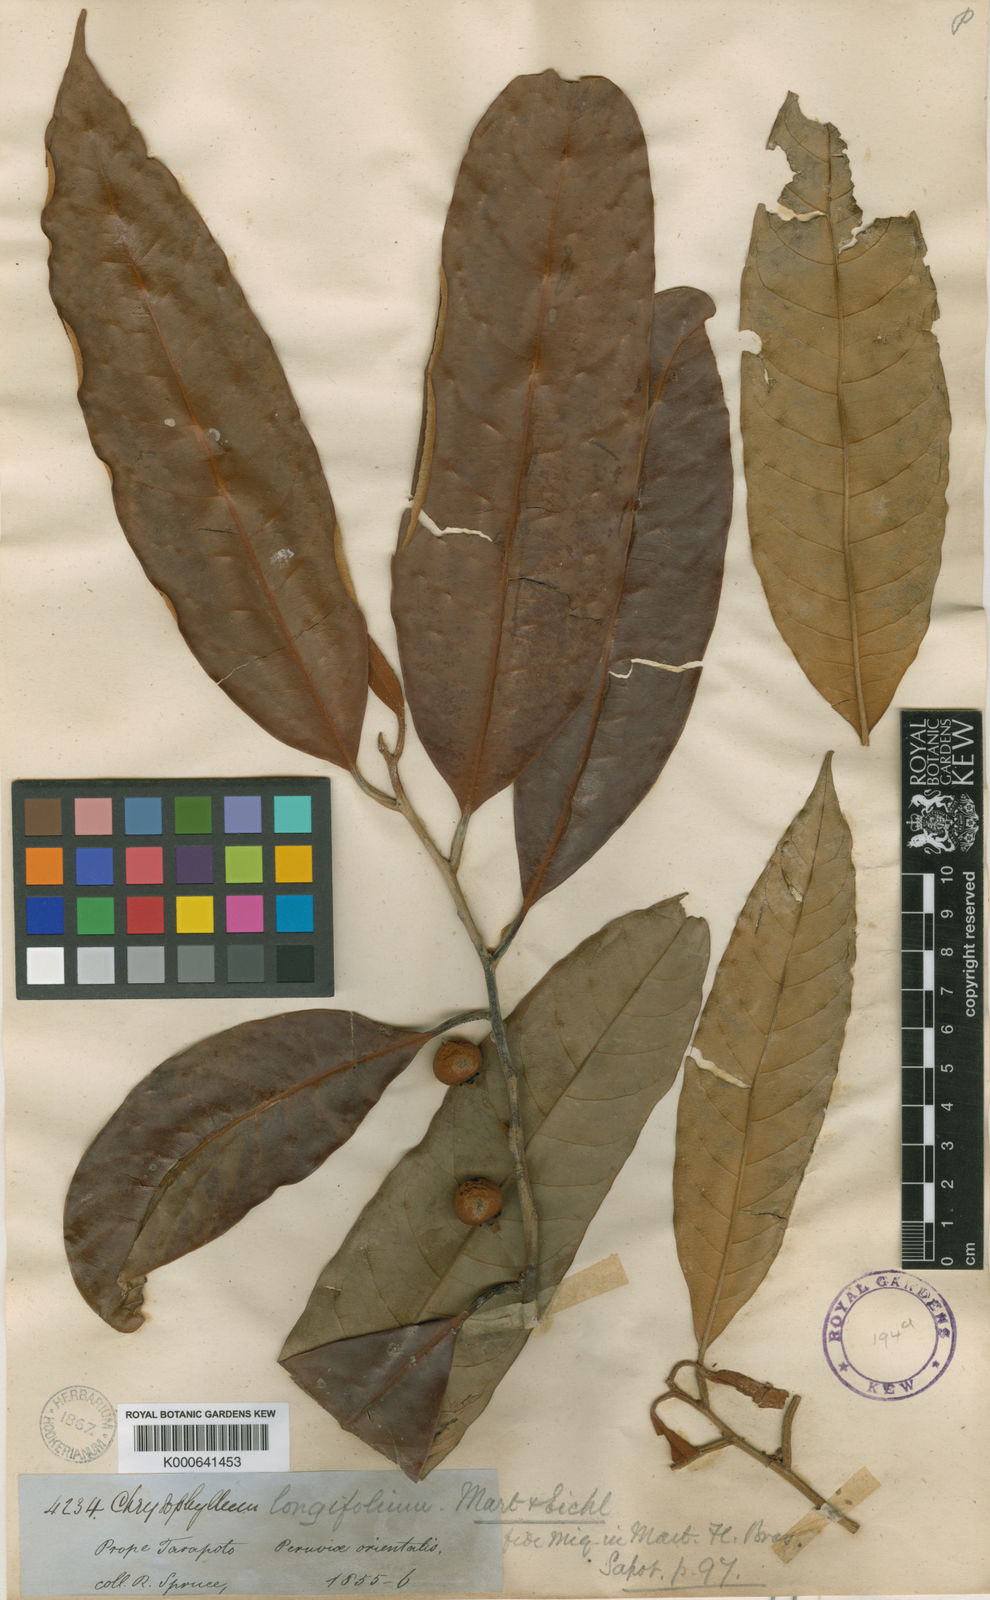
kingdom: Plantae
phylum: Tracheophyta
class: Magnoliopsida
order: Ericales
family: Sapotaceae
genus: Pouteria
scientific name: Pouteria longifolia
